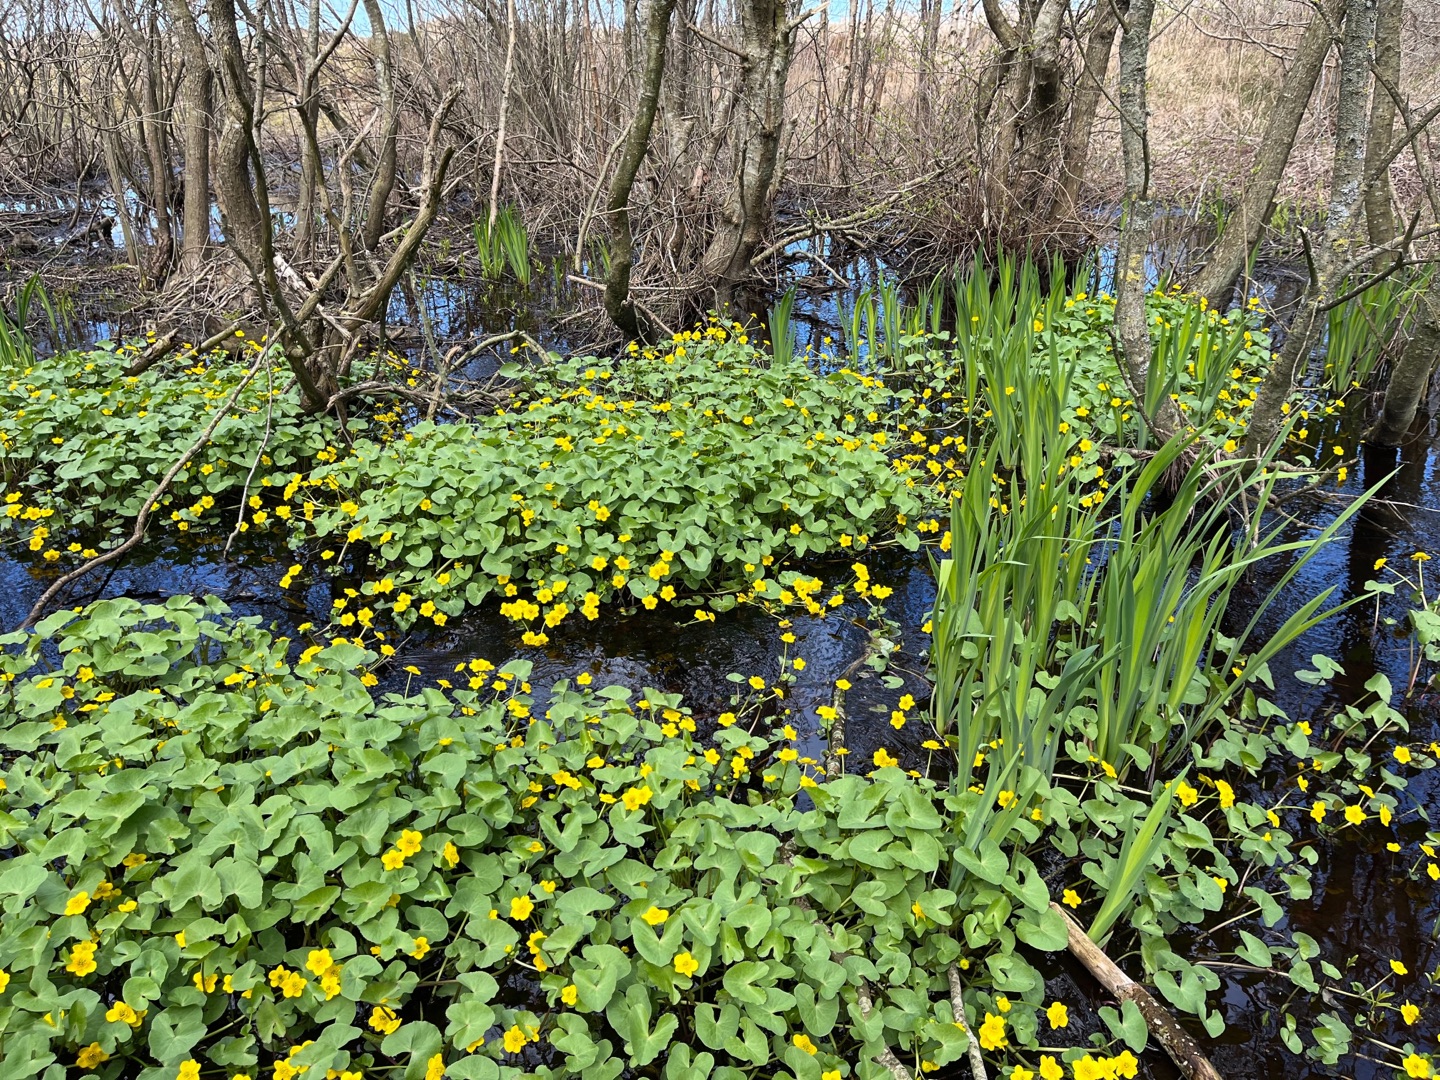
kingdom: Plantae
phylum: Tracheophyta
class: Magnoliopsida
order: Ranunculales
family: Ranunculaceae
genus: Caltha
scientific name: Caltha palustris
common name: Eng-kabbeleje
